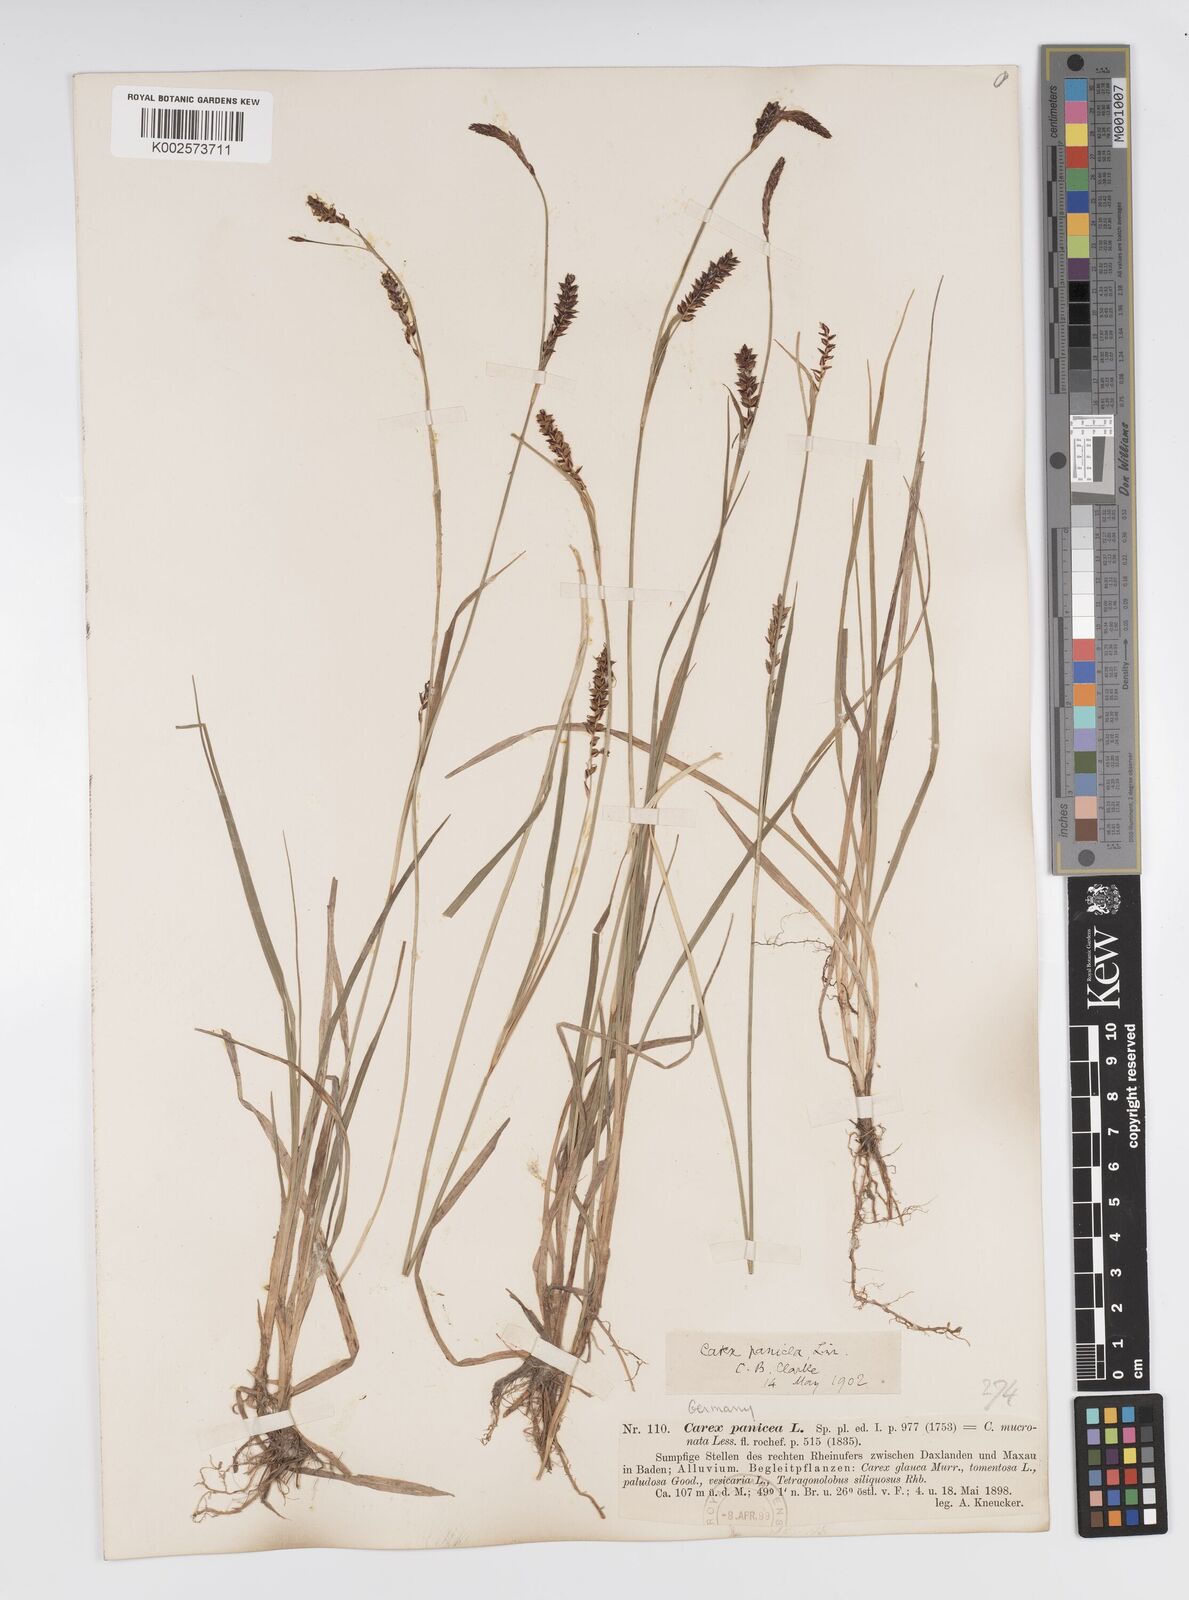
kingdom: Plantae
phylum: Tracheophyta
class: Liliopsida
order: Poales
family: Cyperaceae
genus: Carex
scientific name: Carex panicea
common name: Carnation sedge
